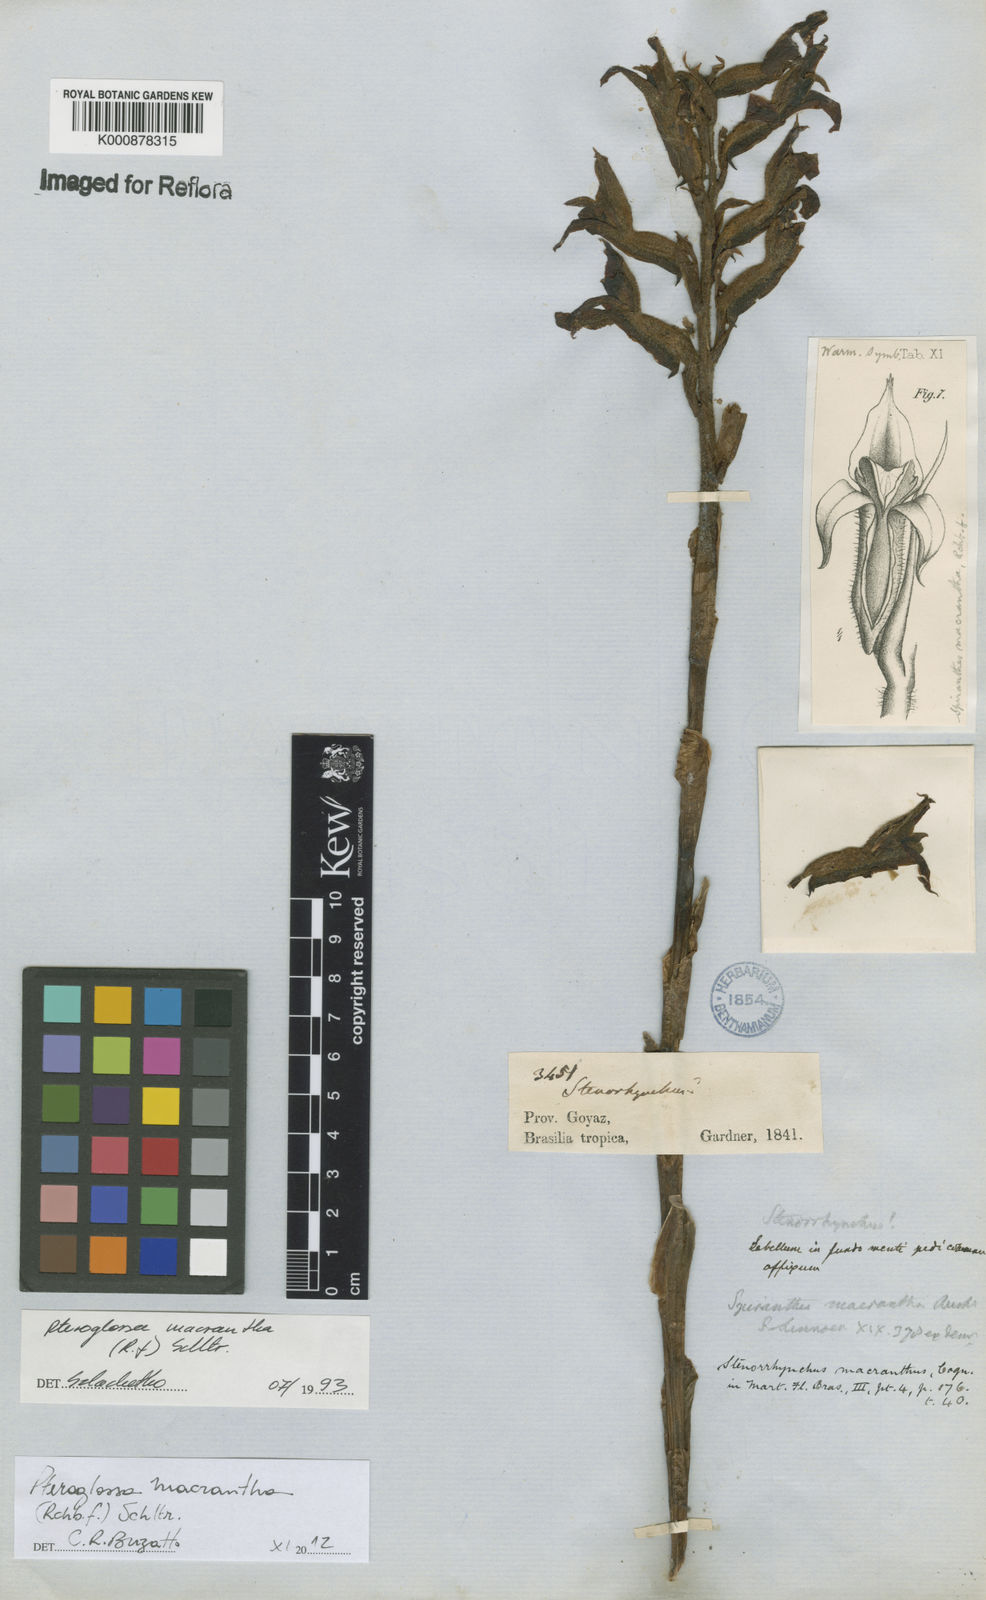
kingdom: Plantae
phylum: Tracheophyta
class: Liliopsida
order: Asparagales
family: Orchidaceae
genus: Pteroglossa
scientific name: Pteroglossa macrantha
